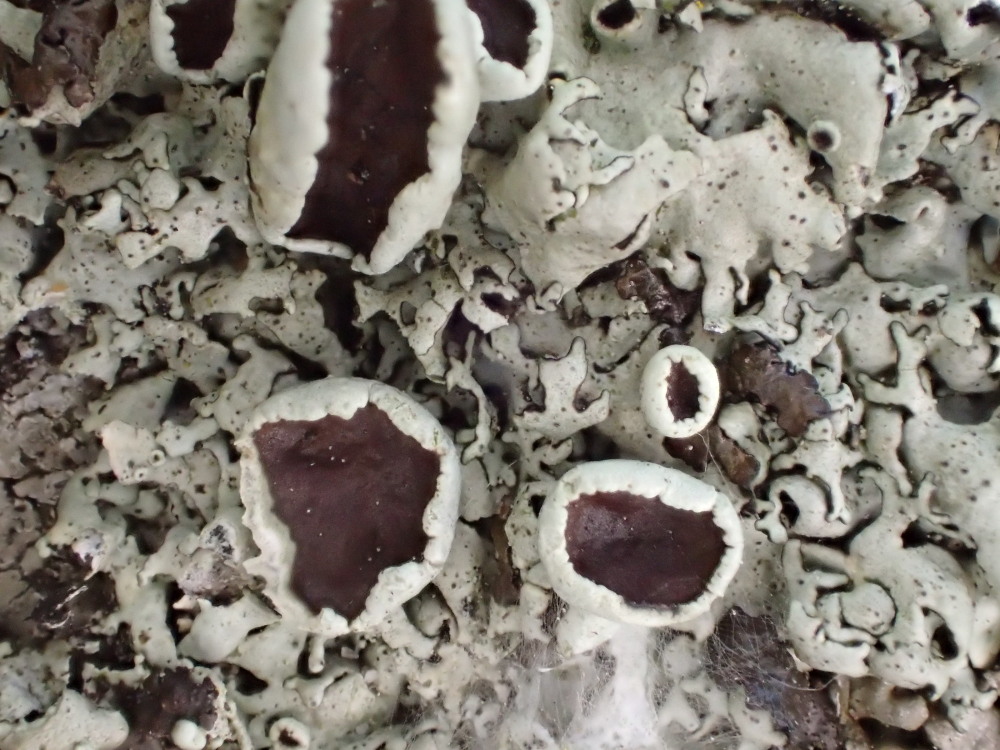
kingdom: Fungi
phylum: Ascomycota
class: Lecanoromycetes
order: Lecanorales
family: Parmeliaceae
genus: Xanthoparmelia
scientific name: Xanthoparmelia stenophylla
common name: Shingled rock shield
